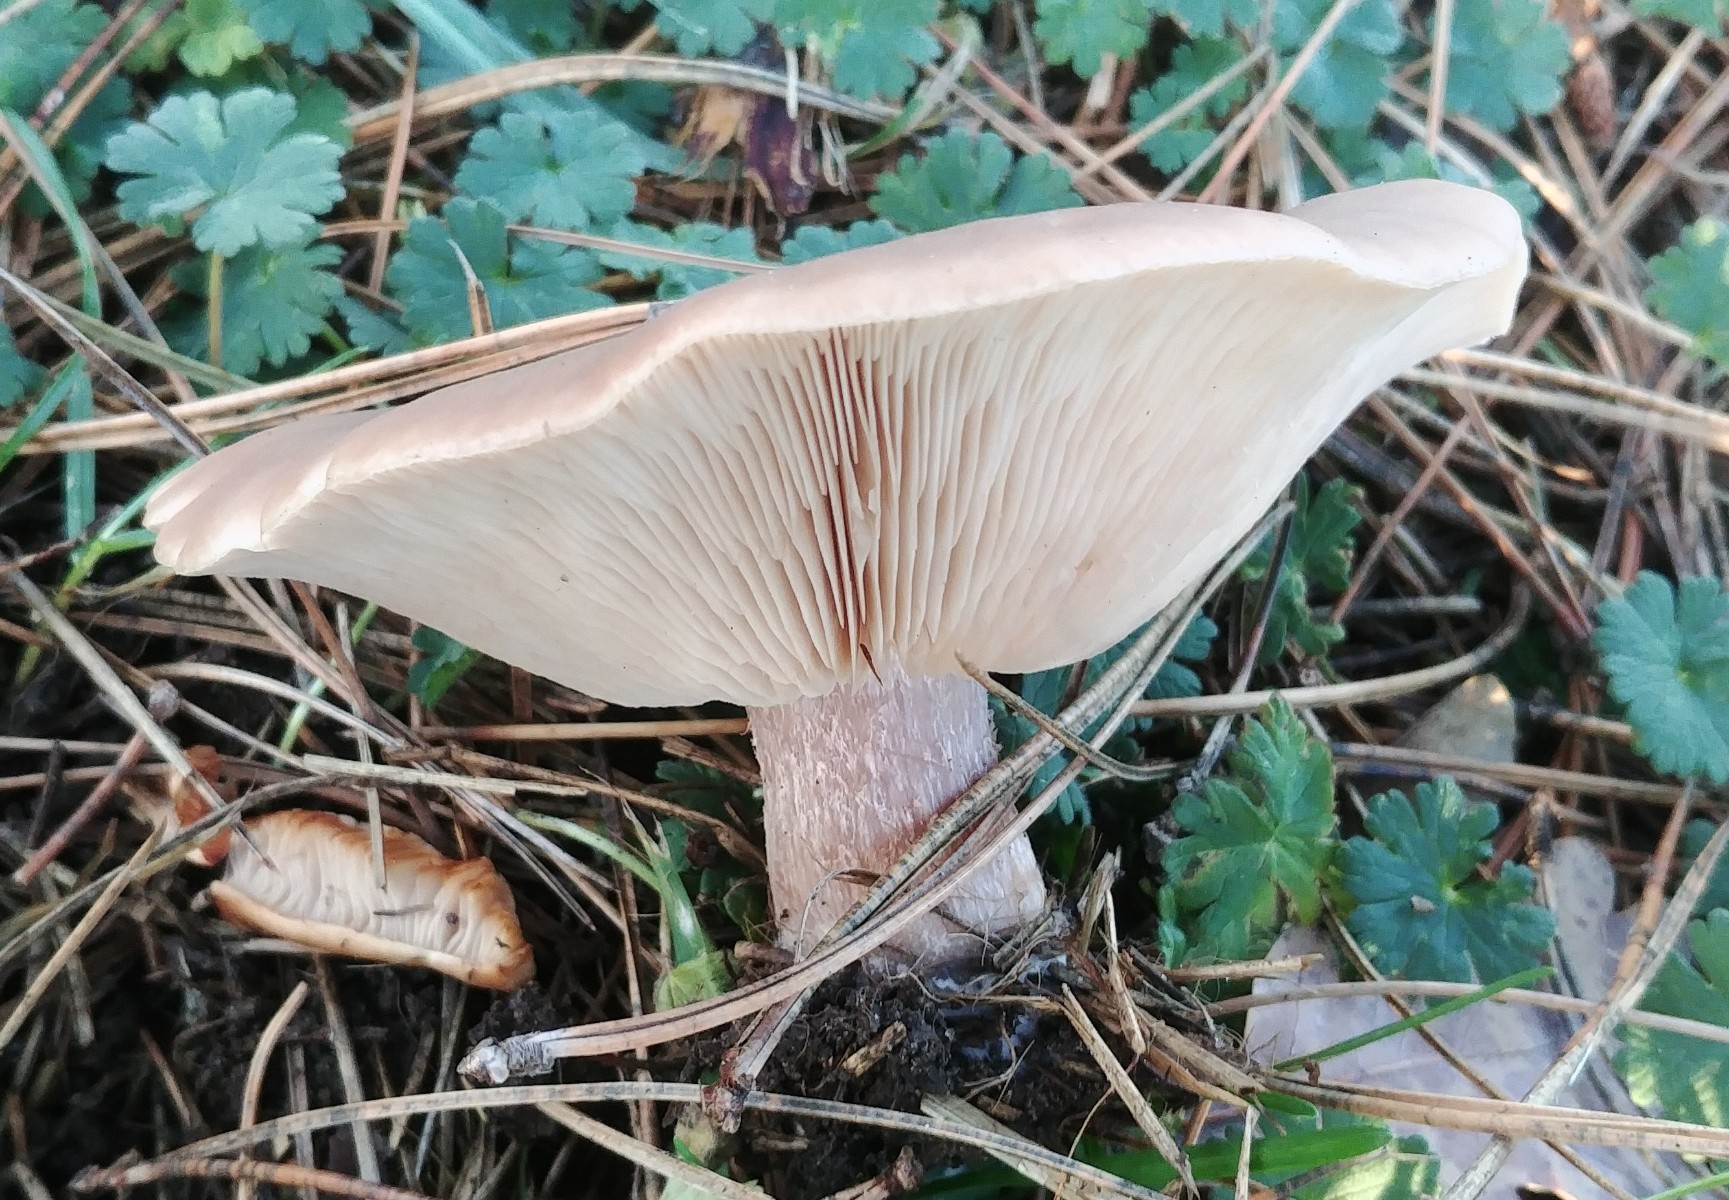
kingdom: Fungi
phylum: Basidiomycota
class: Agaricomycetes
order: Agaricales
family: Tricholomataceae
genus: Lepista
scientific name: Lepista personata
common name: bleg hekseringshat
